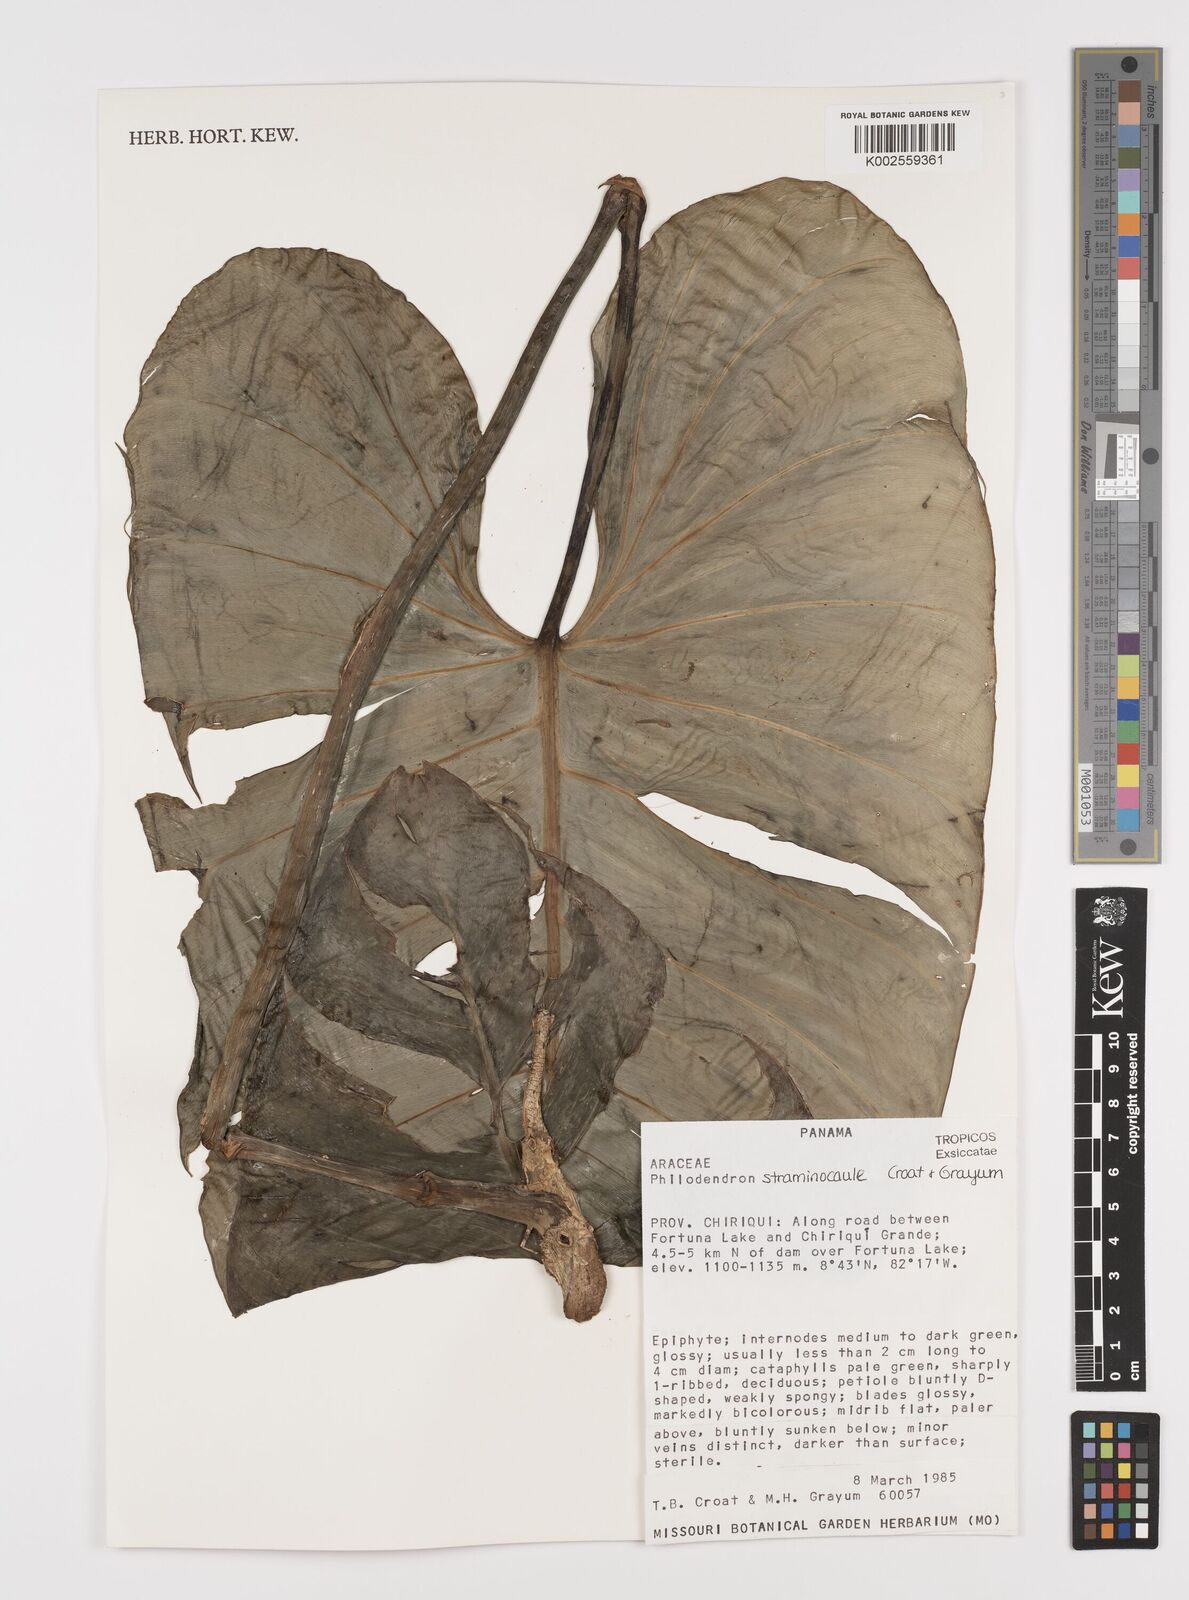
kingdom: Plantae
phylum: Tracheophyta
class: Liliopsida
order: Alismatales
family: Araceae
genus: Philodendron
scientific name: Philodendron straminicaule
